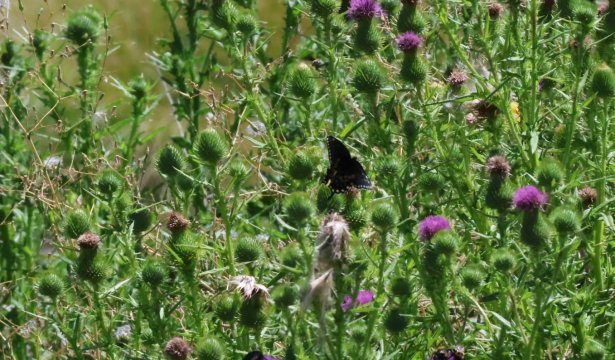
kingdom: Animalia
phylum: Arthropoda
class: Insecta
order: Lepidoptera
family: Papilionidae
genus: Papilio
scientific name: Papilio polyxenes
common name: Black Swallowtail
